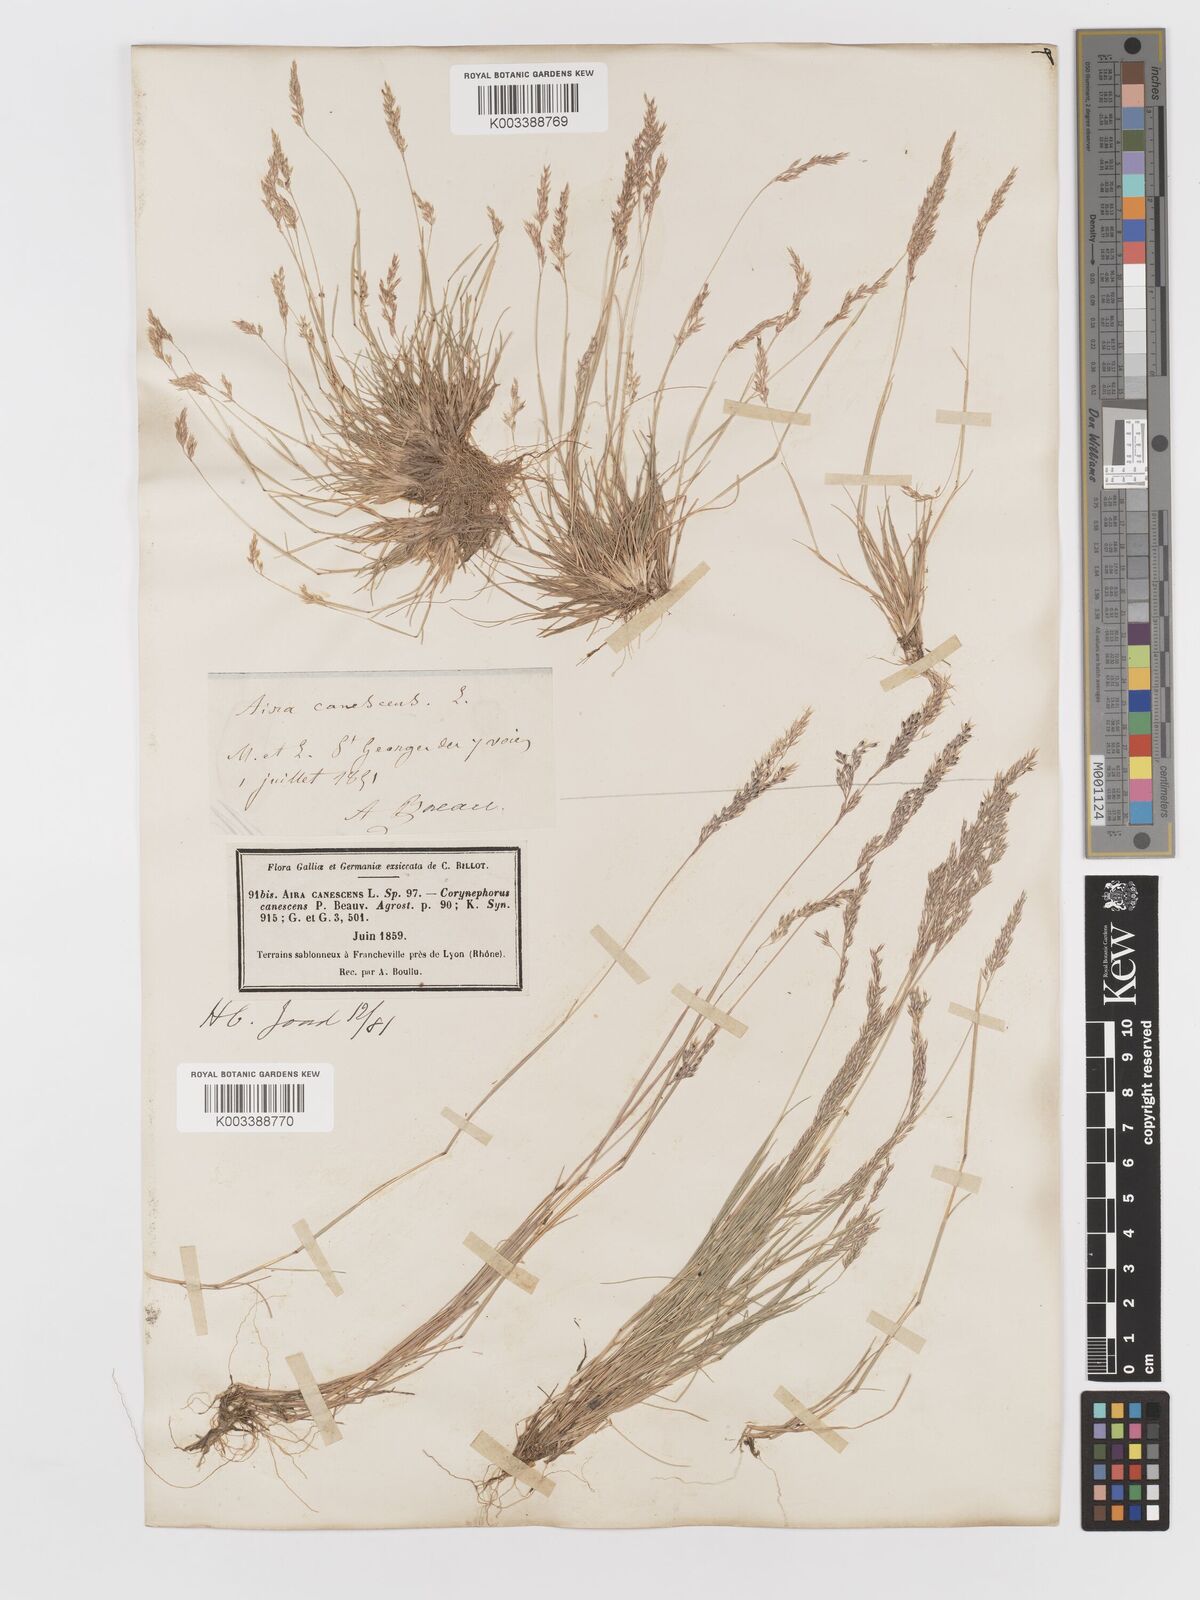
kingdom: Plantae
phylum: Tracheophyta
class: Liliopsida
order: Poales
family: Poaceae
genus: Corynephorus
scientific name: Corynephorus canescens
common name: Grey hair-grass
